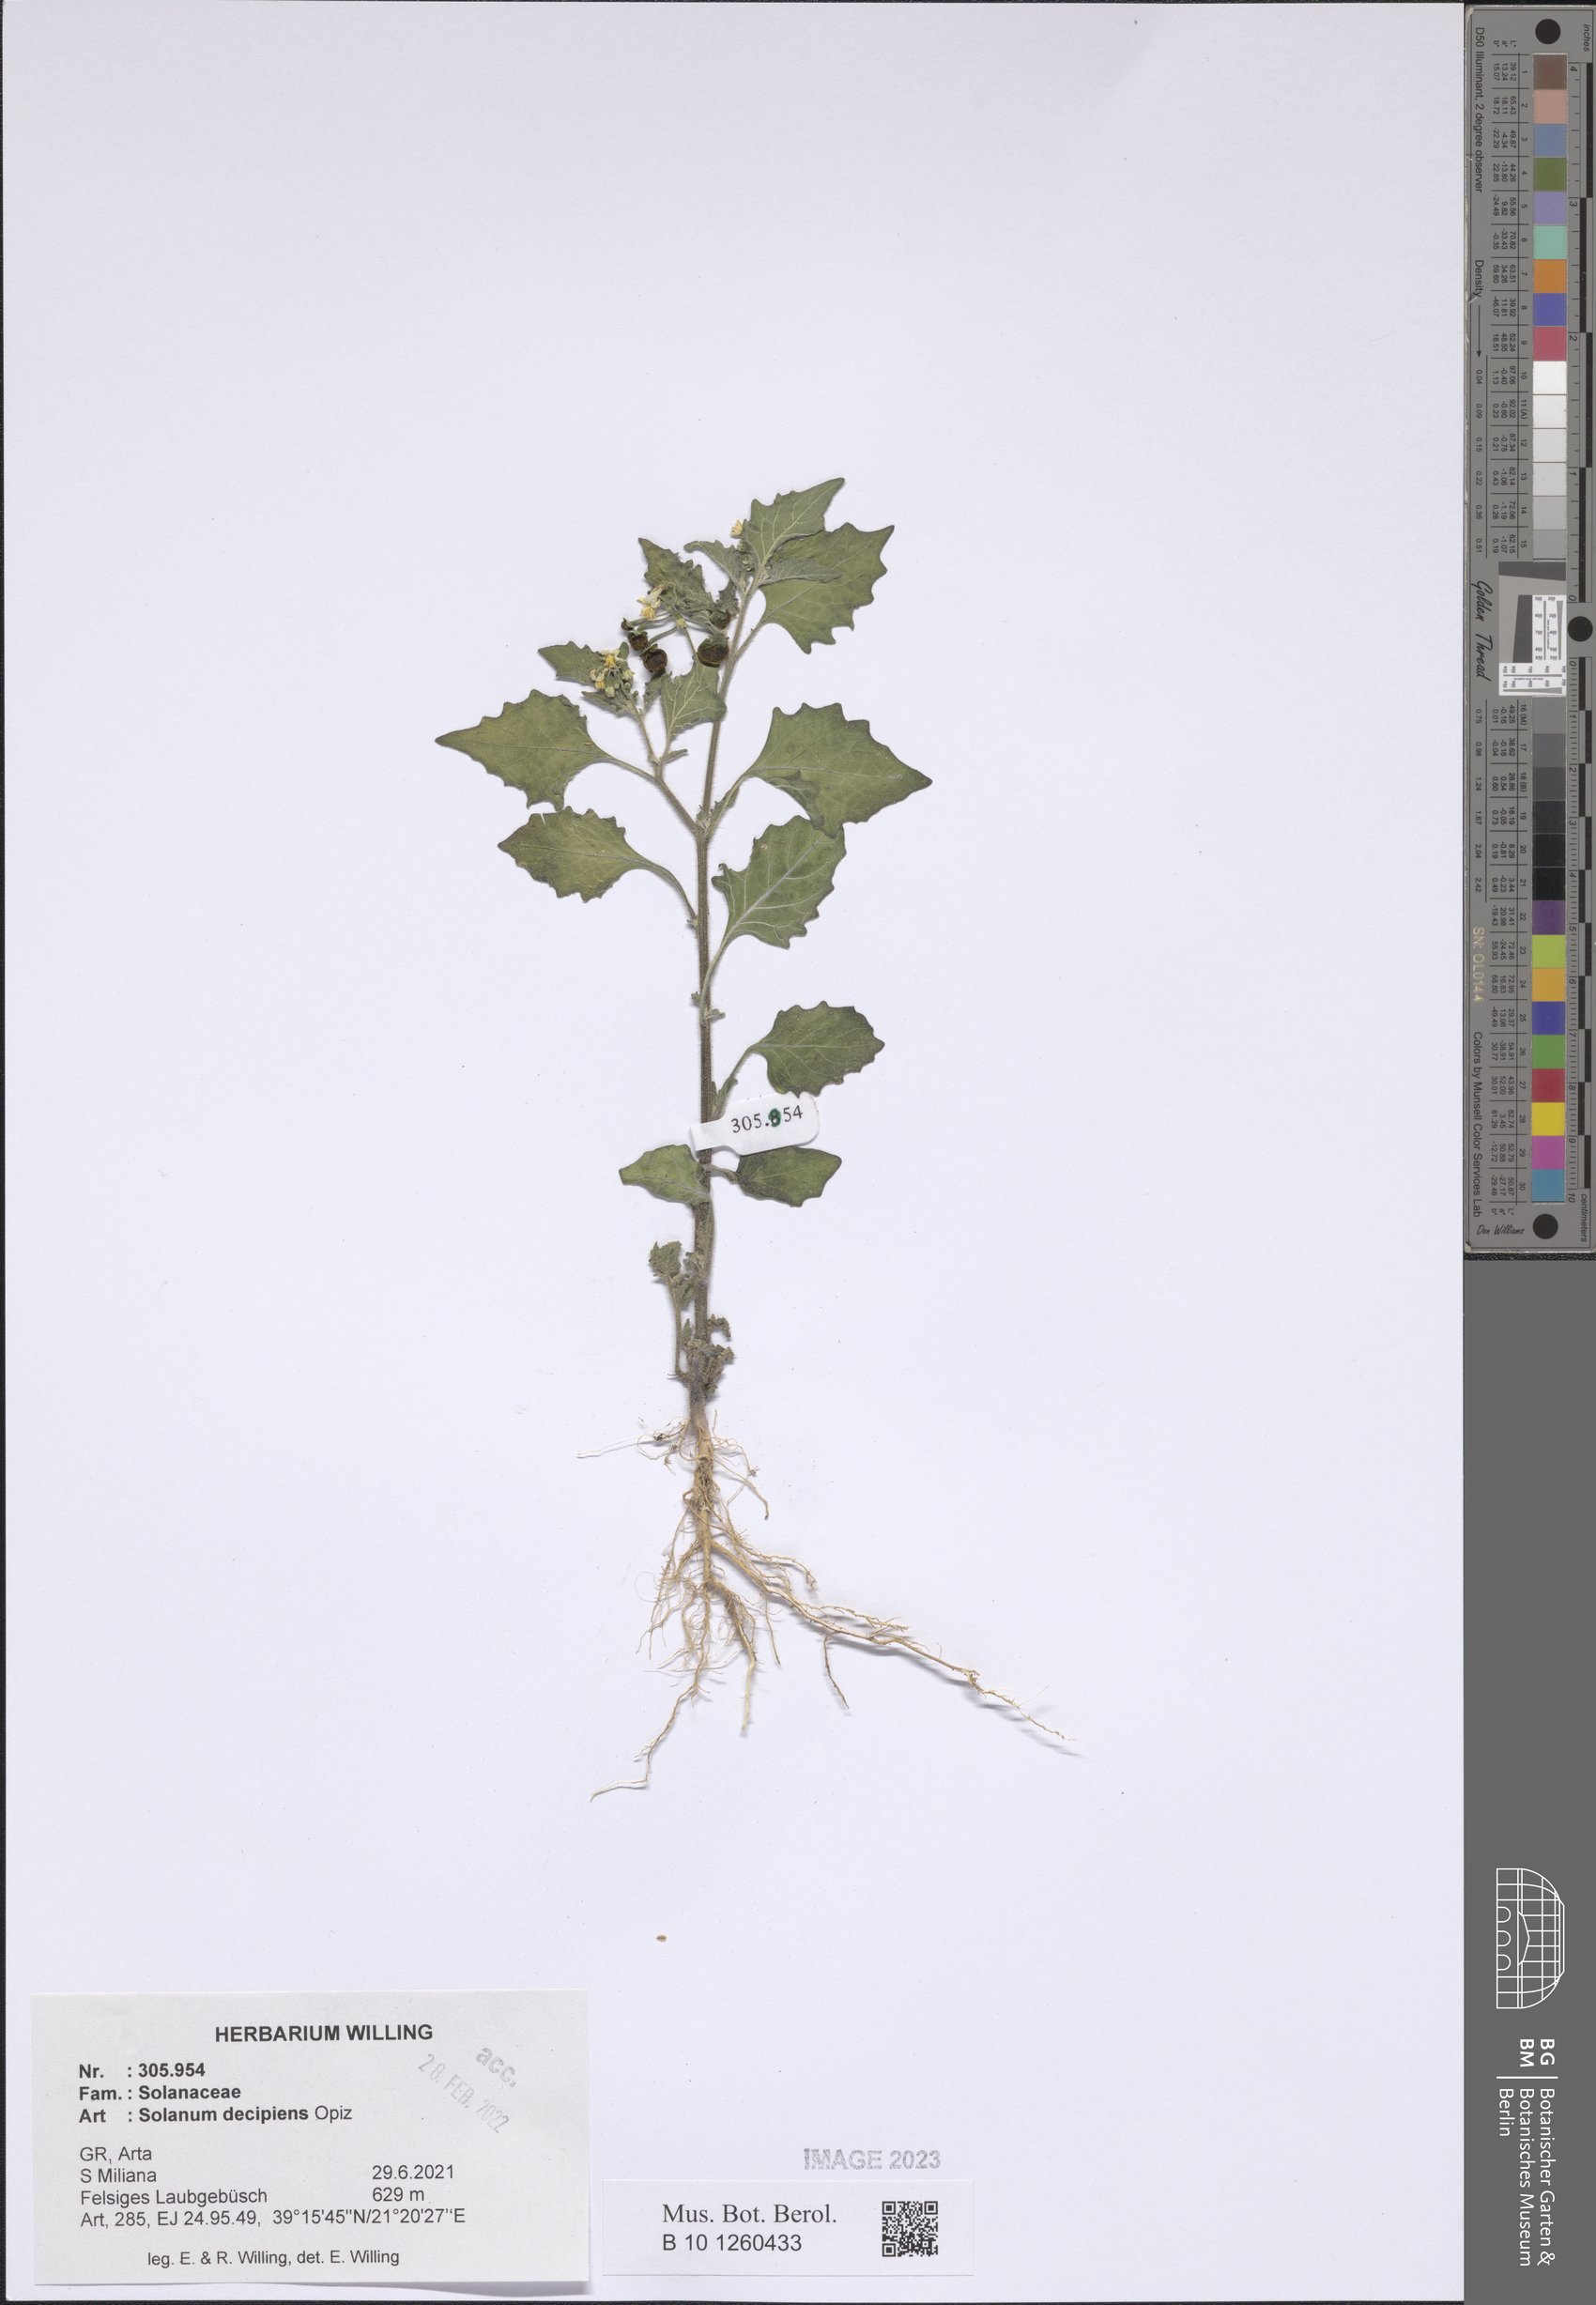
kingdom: Plantae
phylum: Tracheophyta
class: Magnoliopsida
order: Solanales
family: Solanaceae
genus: Solanum
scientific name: Solanum decipiens
